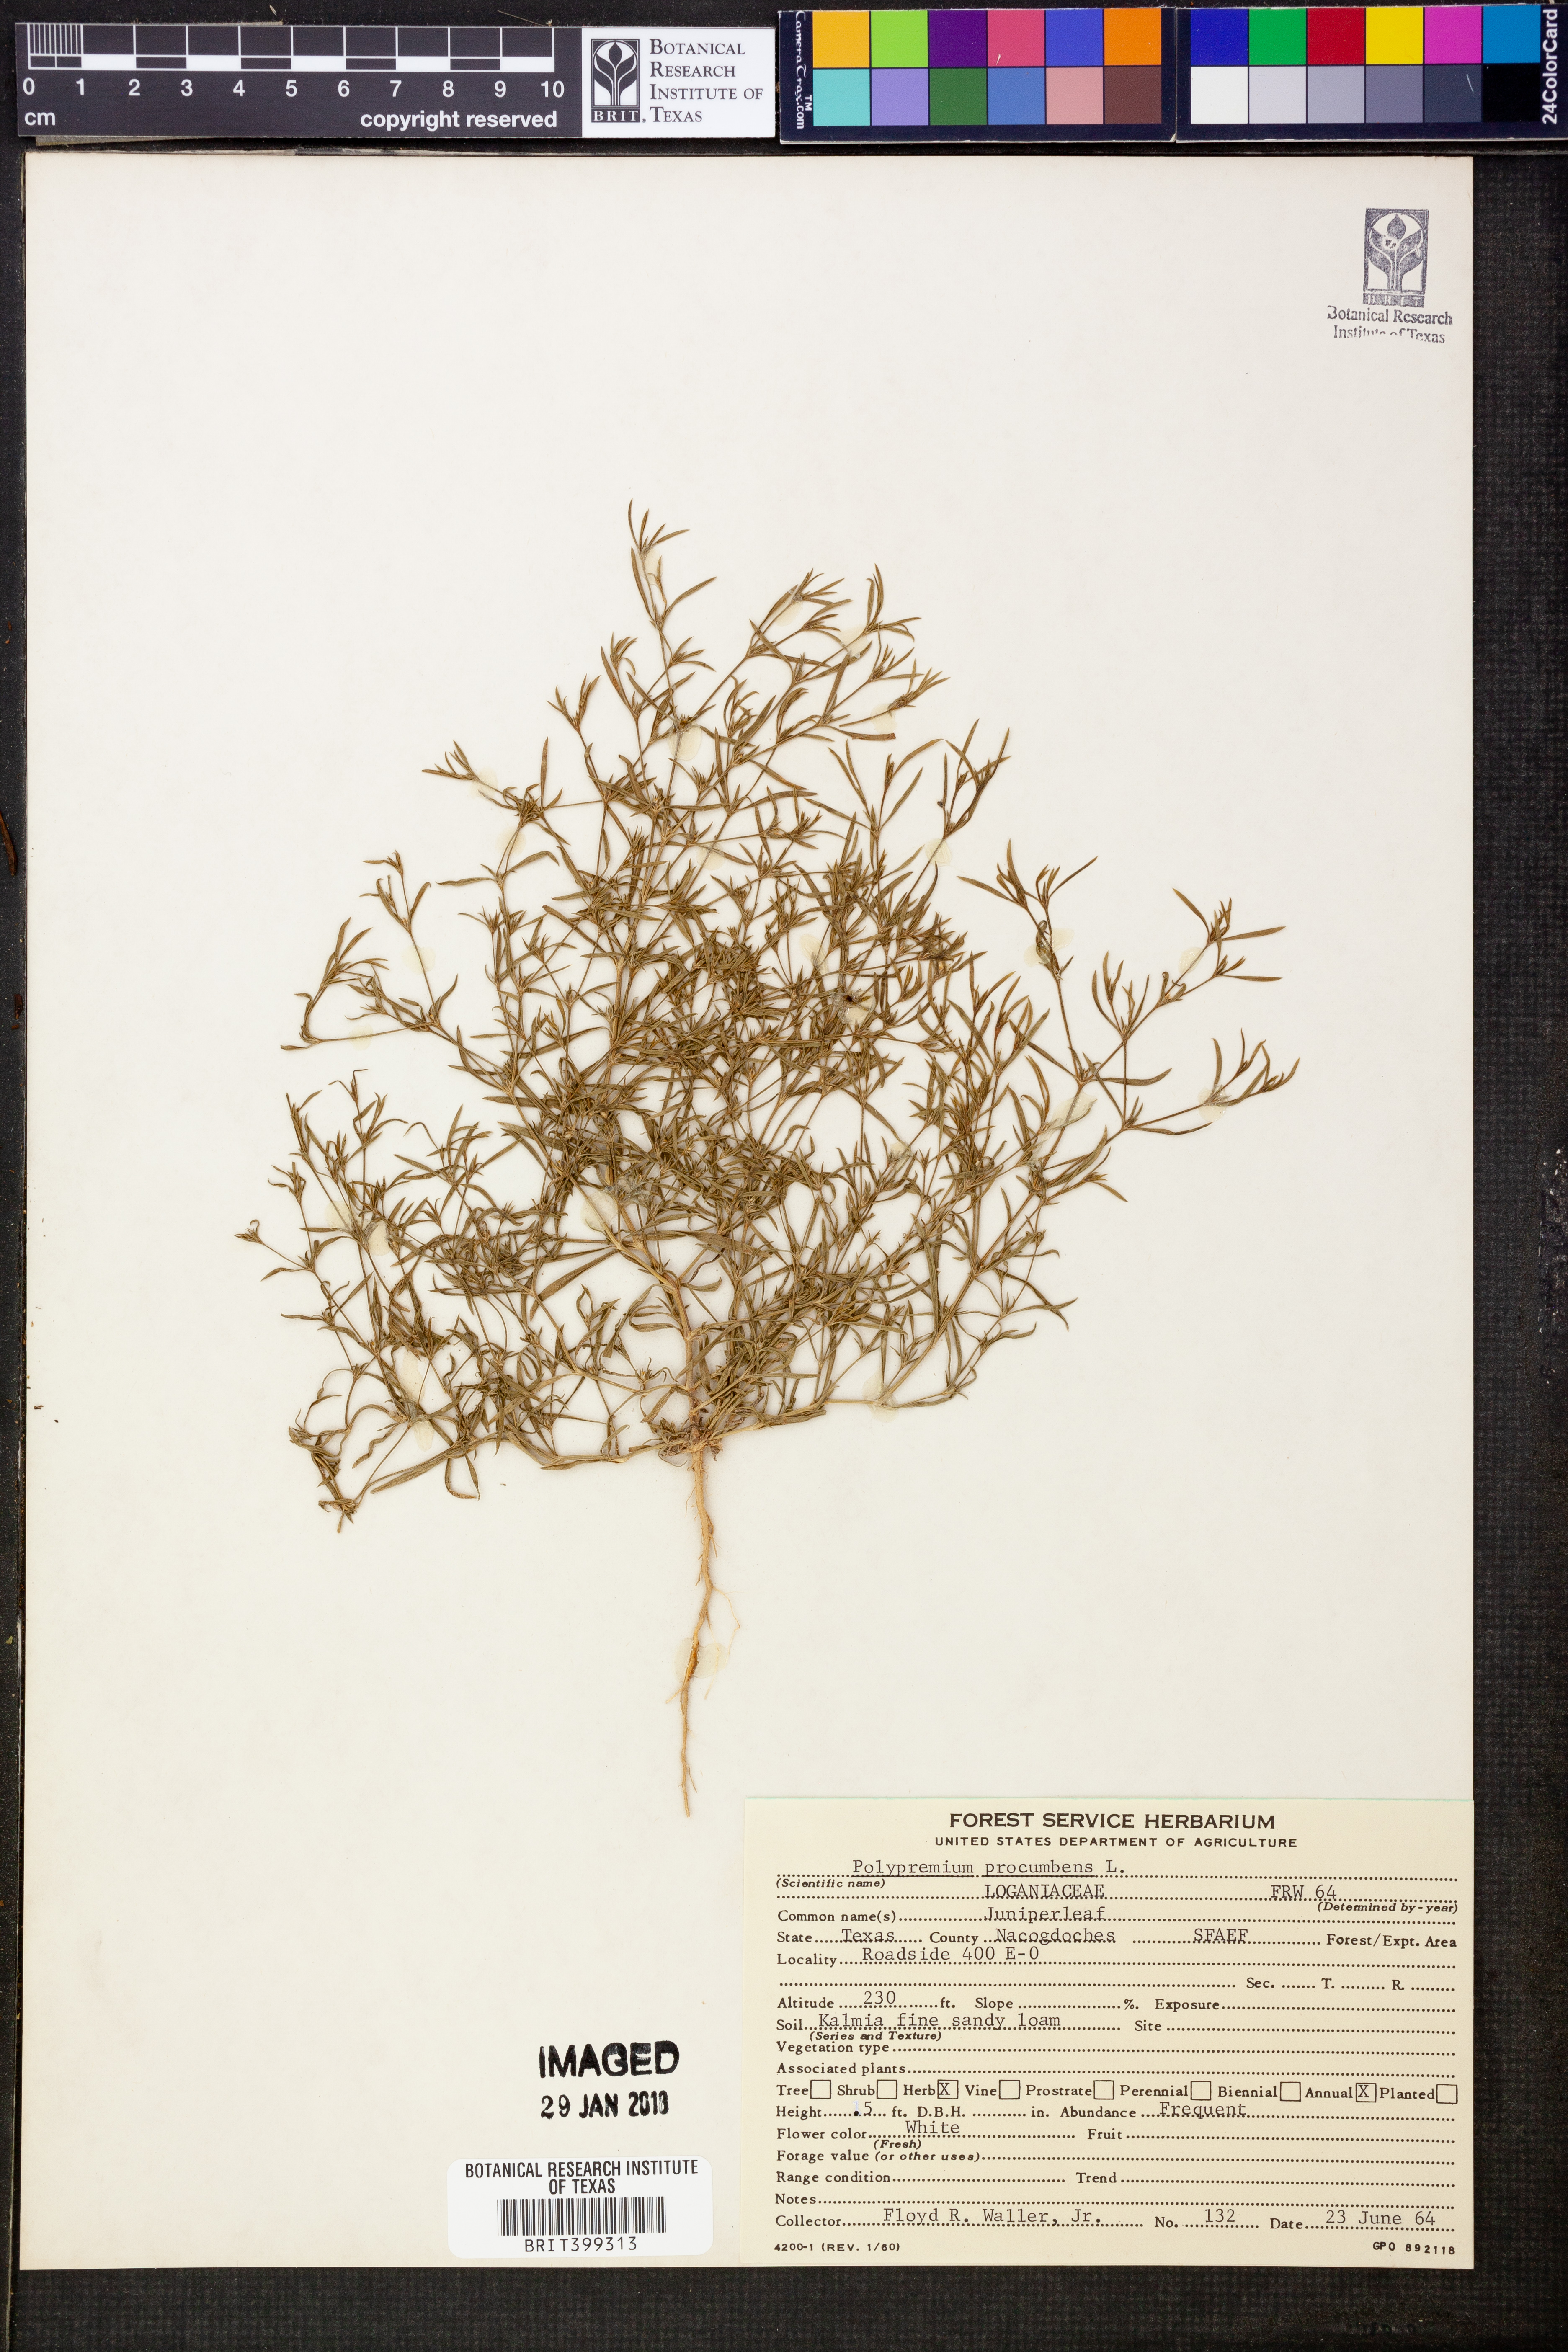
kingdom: Plantae
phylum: Tracheophyta
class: Magnoliopsida
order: Lamiales
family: Tetrachondraceae
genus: Polypremum
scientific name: Polypremum procumbens
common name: Juniper-leaf
